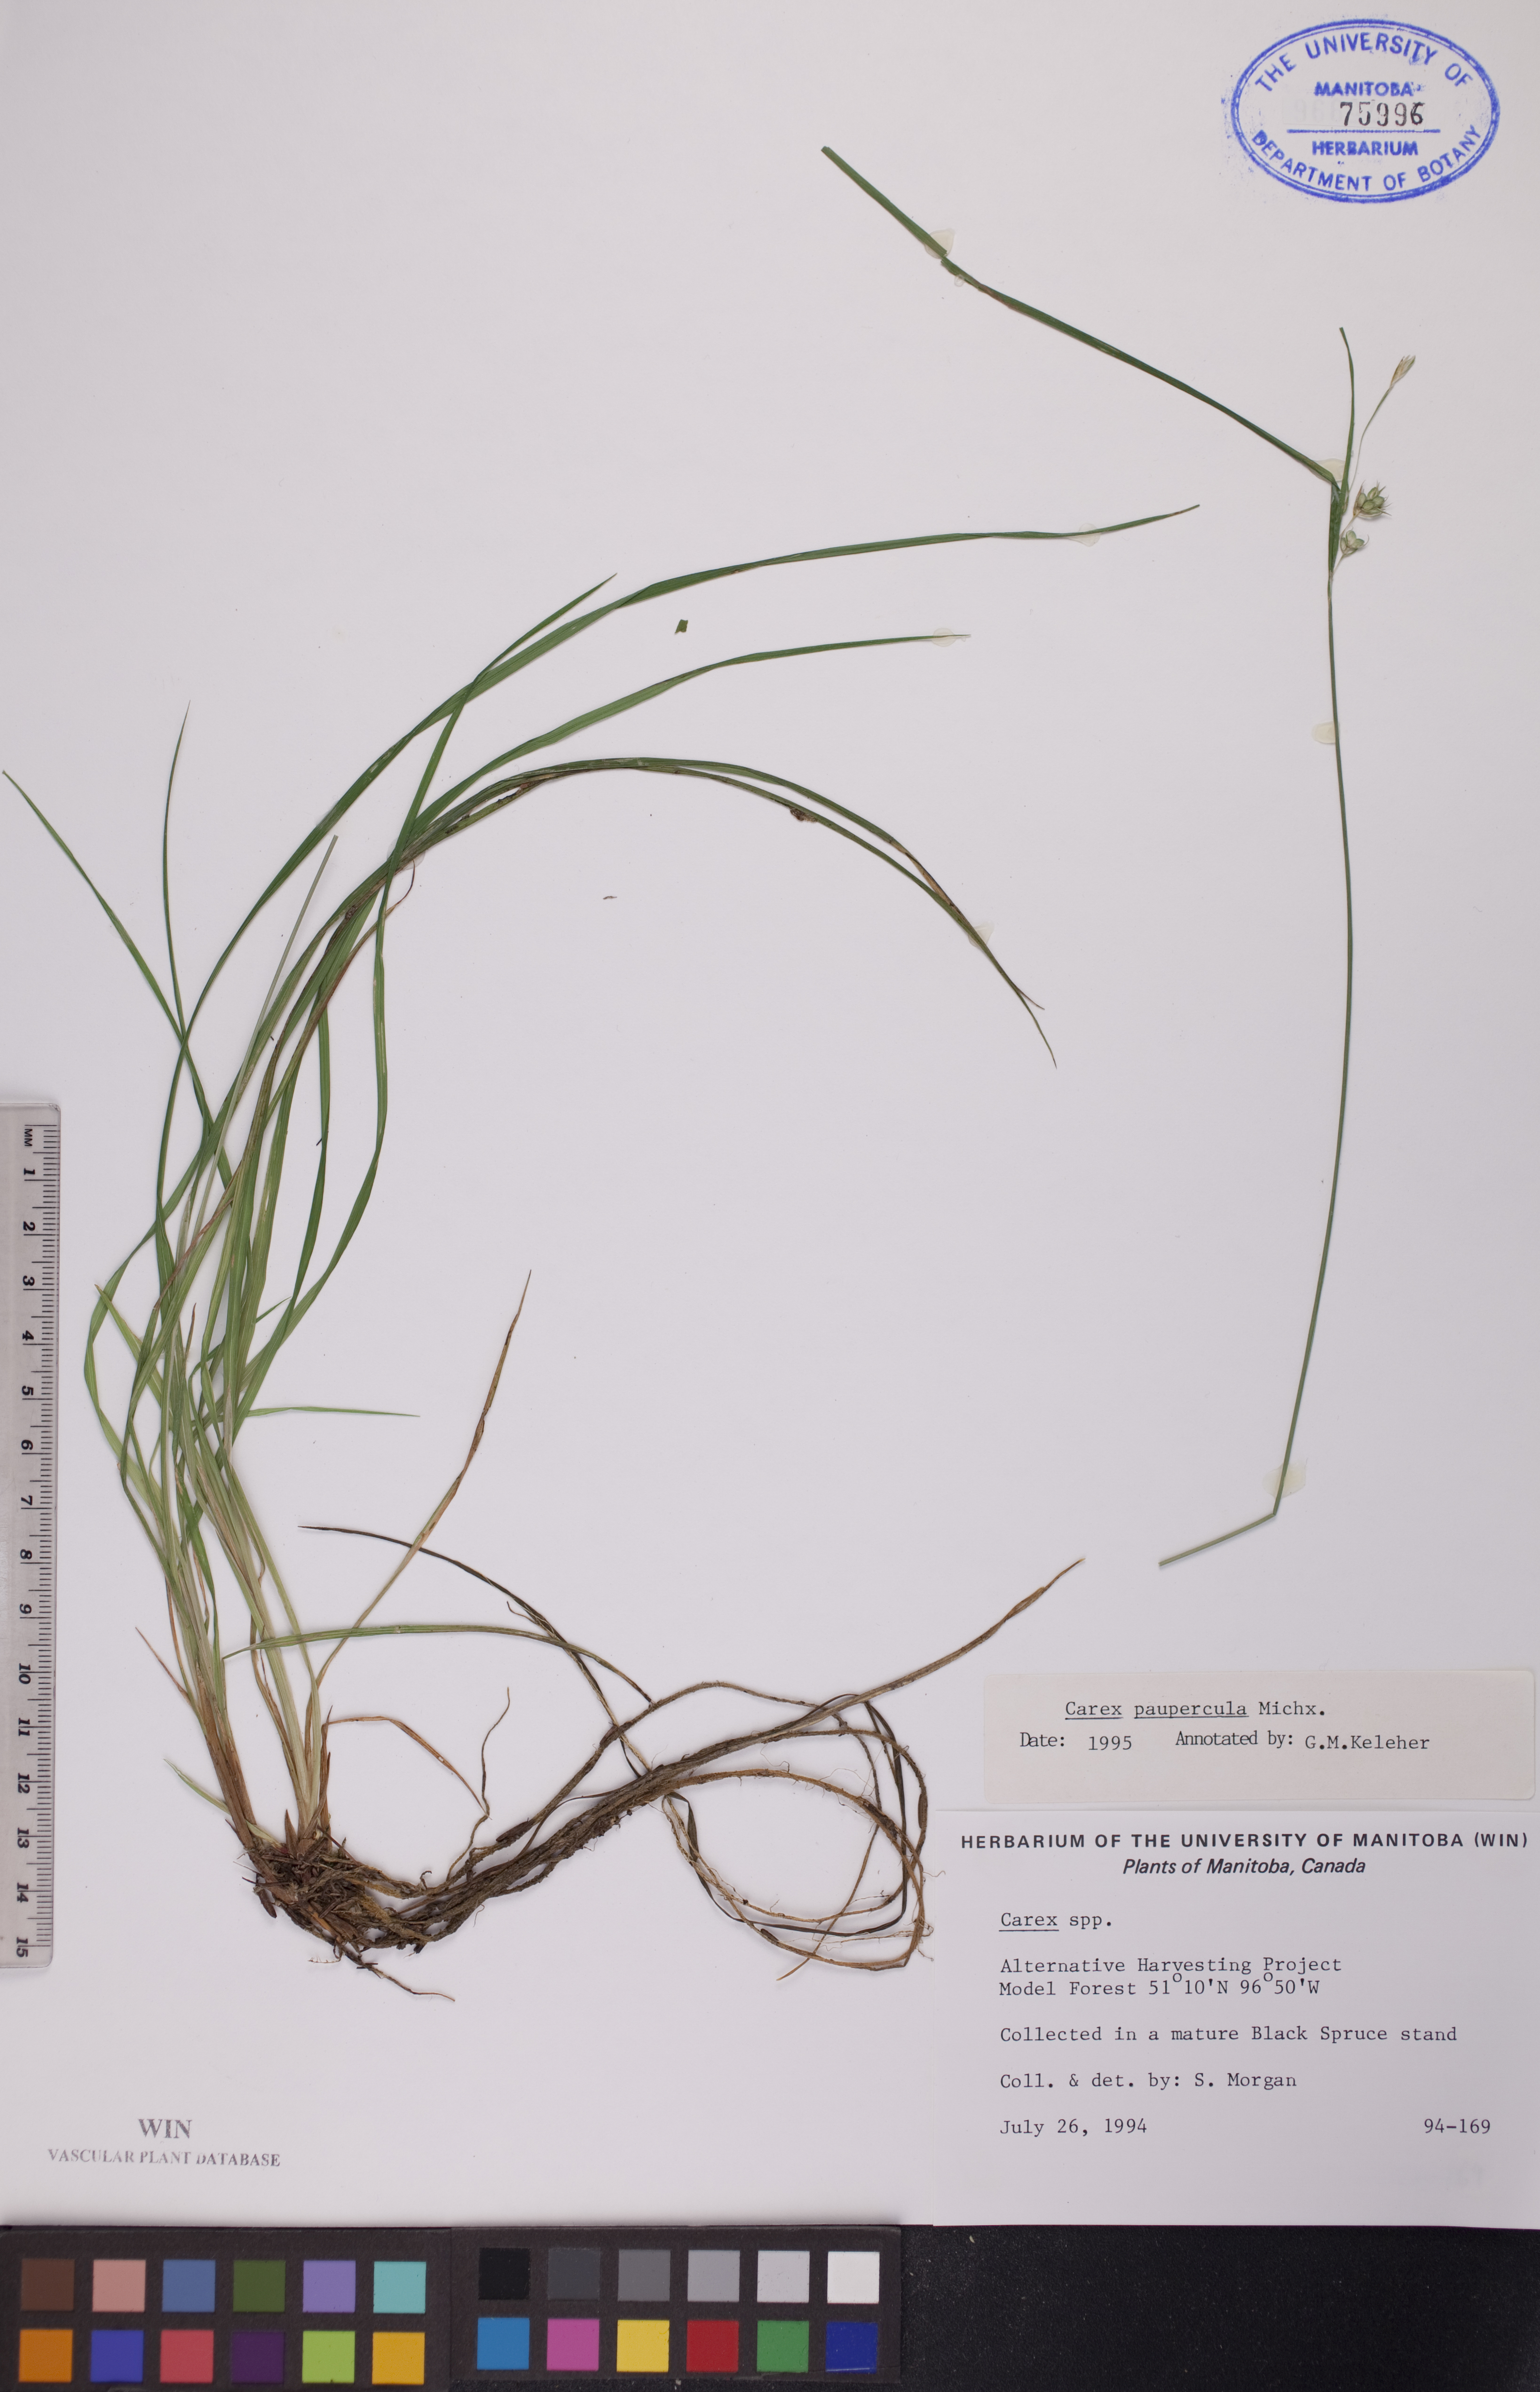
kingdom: Plantae
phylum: Tracheophyta
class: Liliopsida
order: Poales
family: Cyperaceae
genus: Carex
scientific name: Carex magellanica
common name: Bog sedge
